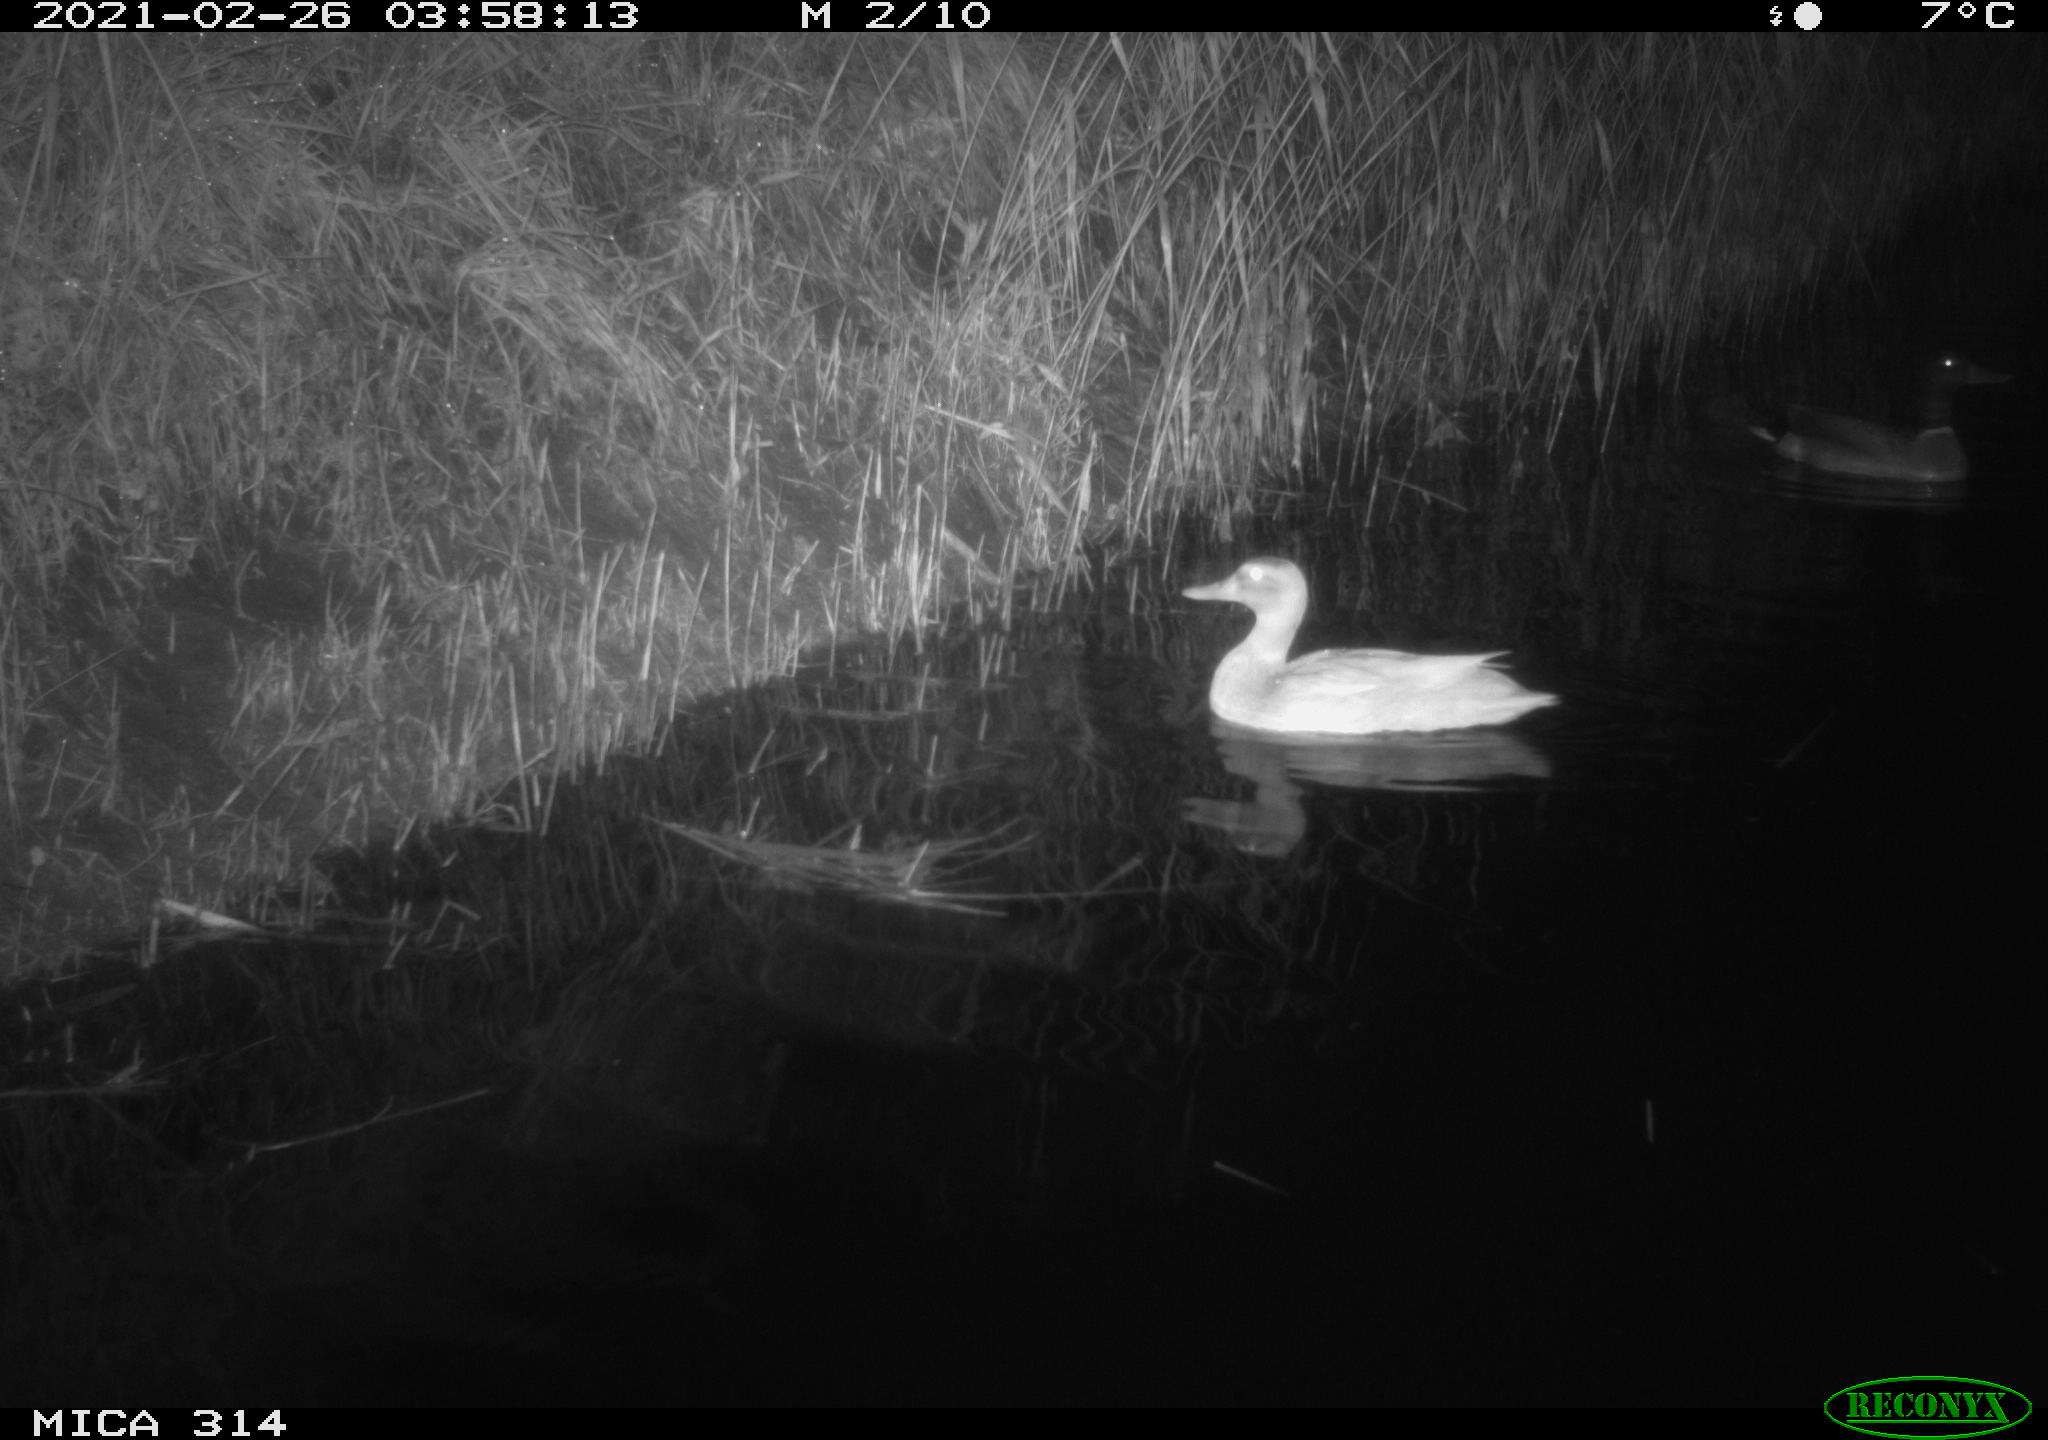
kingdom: Animalia
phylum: Chordata
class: Aves
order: Anseriformes
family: Anatidae
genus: Anas
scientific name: Anas platyrhynchos
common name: Mallard
